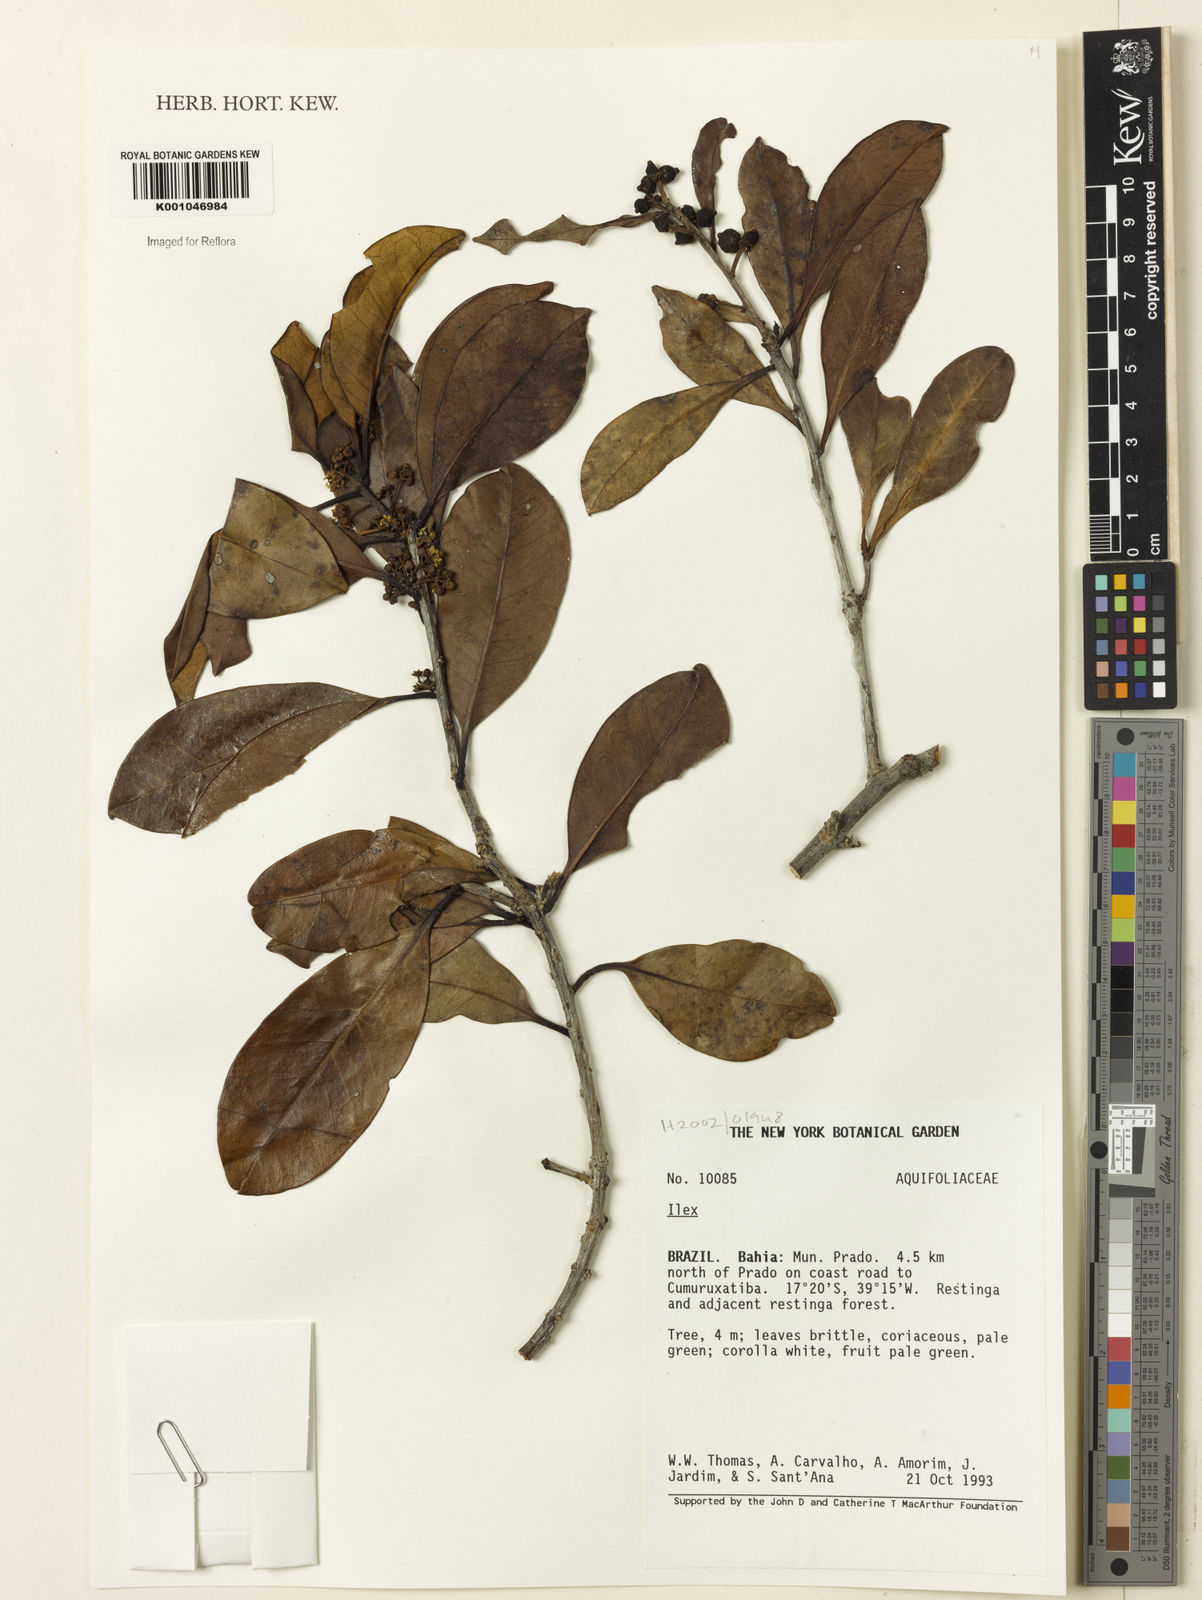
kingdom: Plantae
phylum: Tracheophyta
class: Magnoliopsida
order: Aquifoliales
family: Aquifoliaceae
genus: Ilex
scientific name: Ilex
